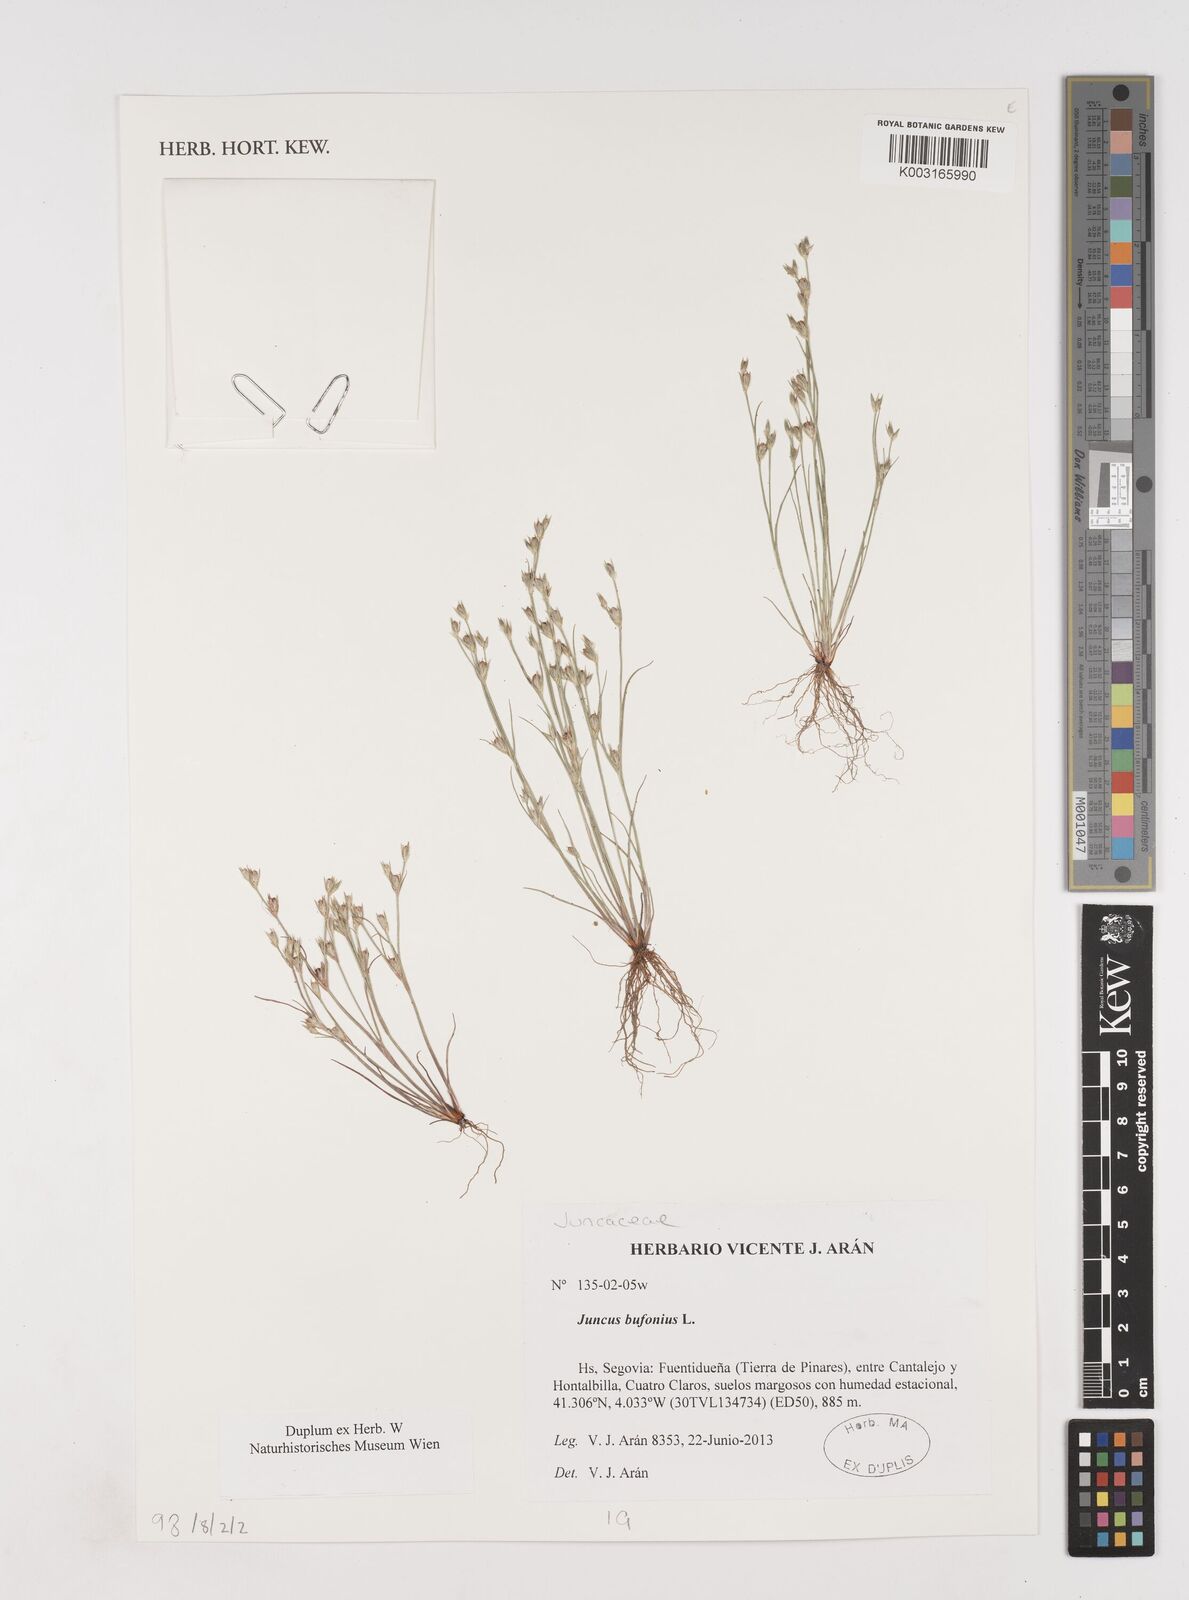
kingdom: Plantae
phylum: Tracheophyta
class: Liliopsida
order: Poales
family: Juncaceae
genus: Juncus
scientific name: Juncus bufonius
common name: Toad rush
